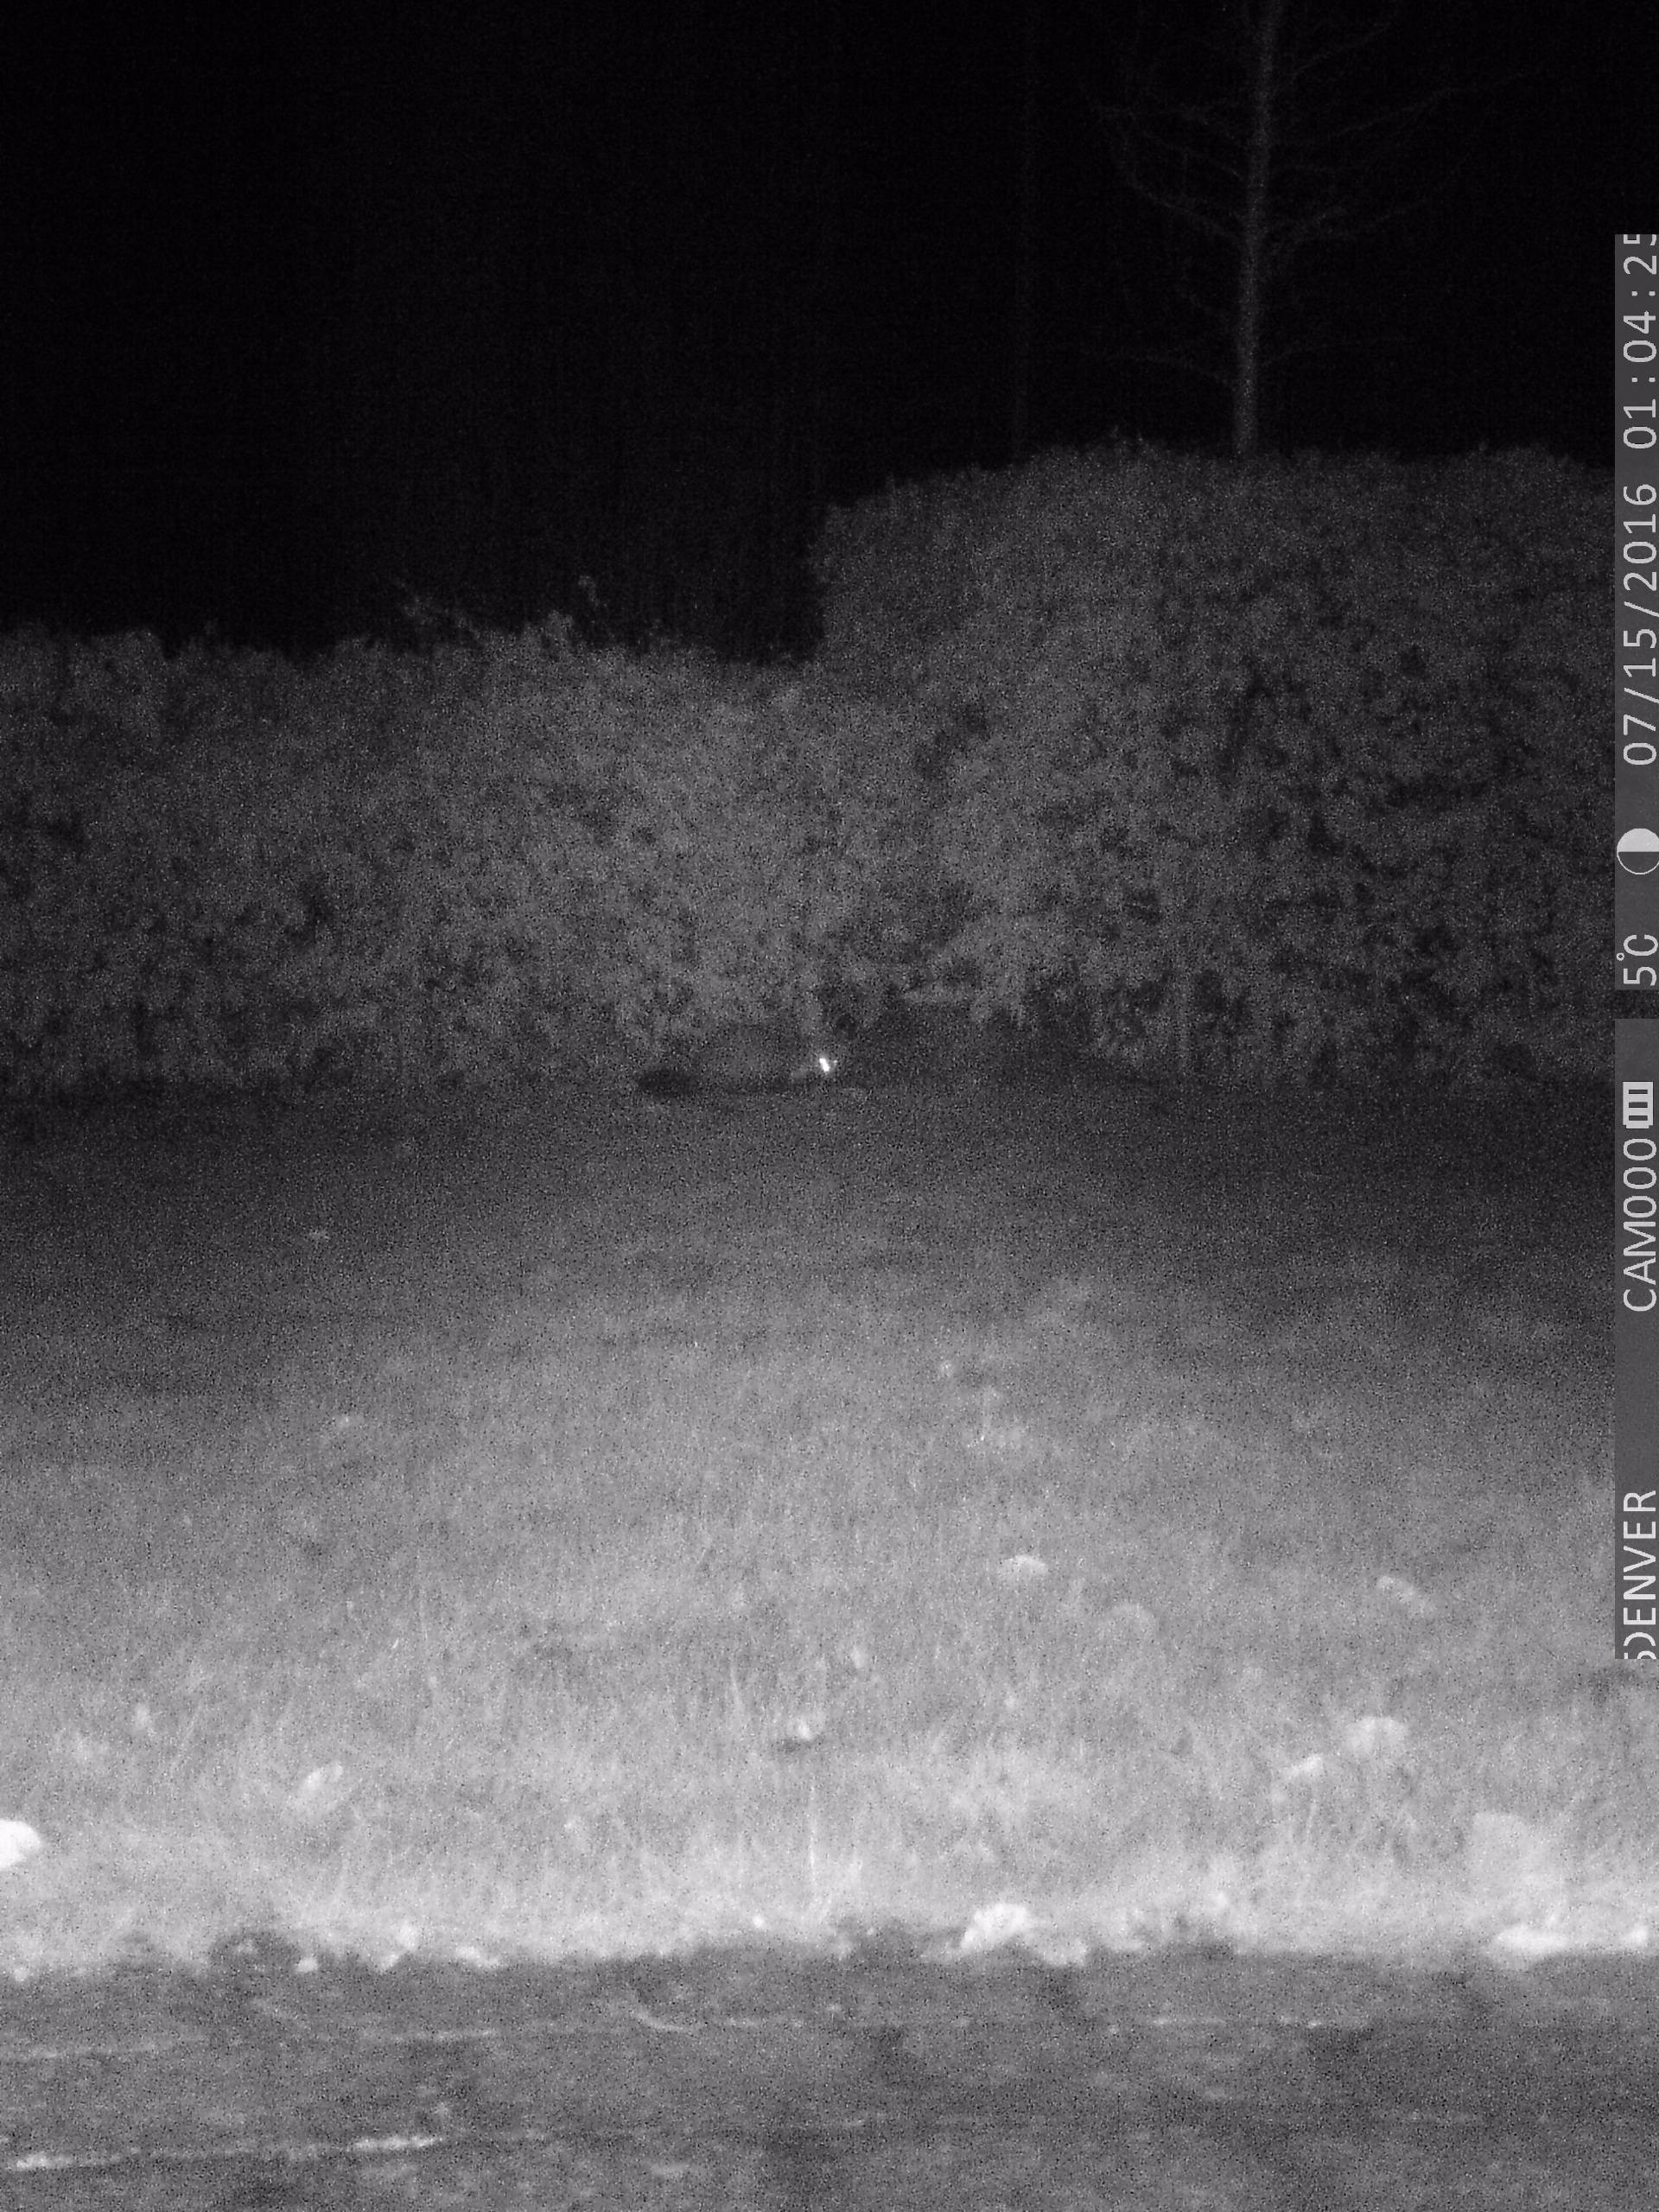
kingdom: Animalia
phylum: Chordata
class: Mammalia
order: Carnivora
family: Mustelidae
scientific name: Mustelidae
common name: Mårer
